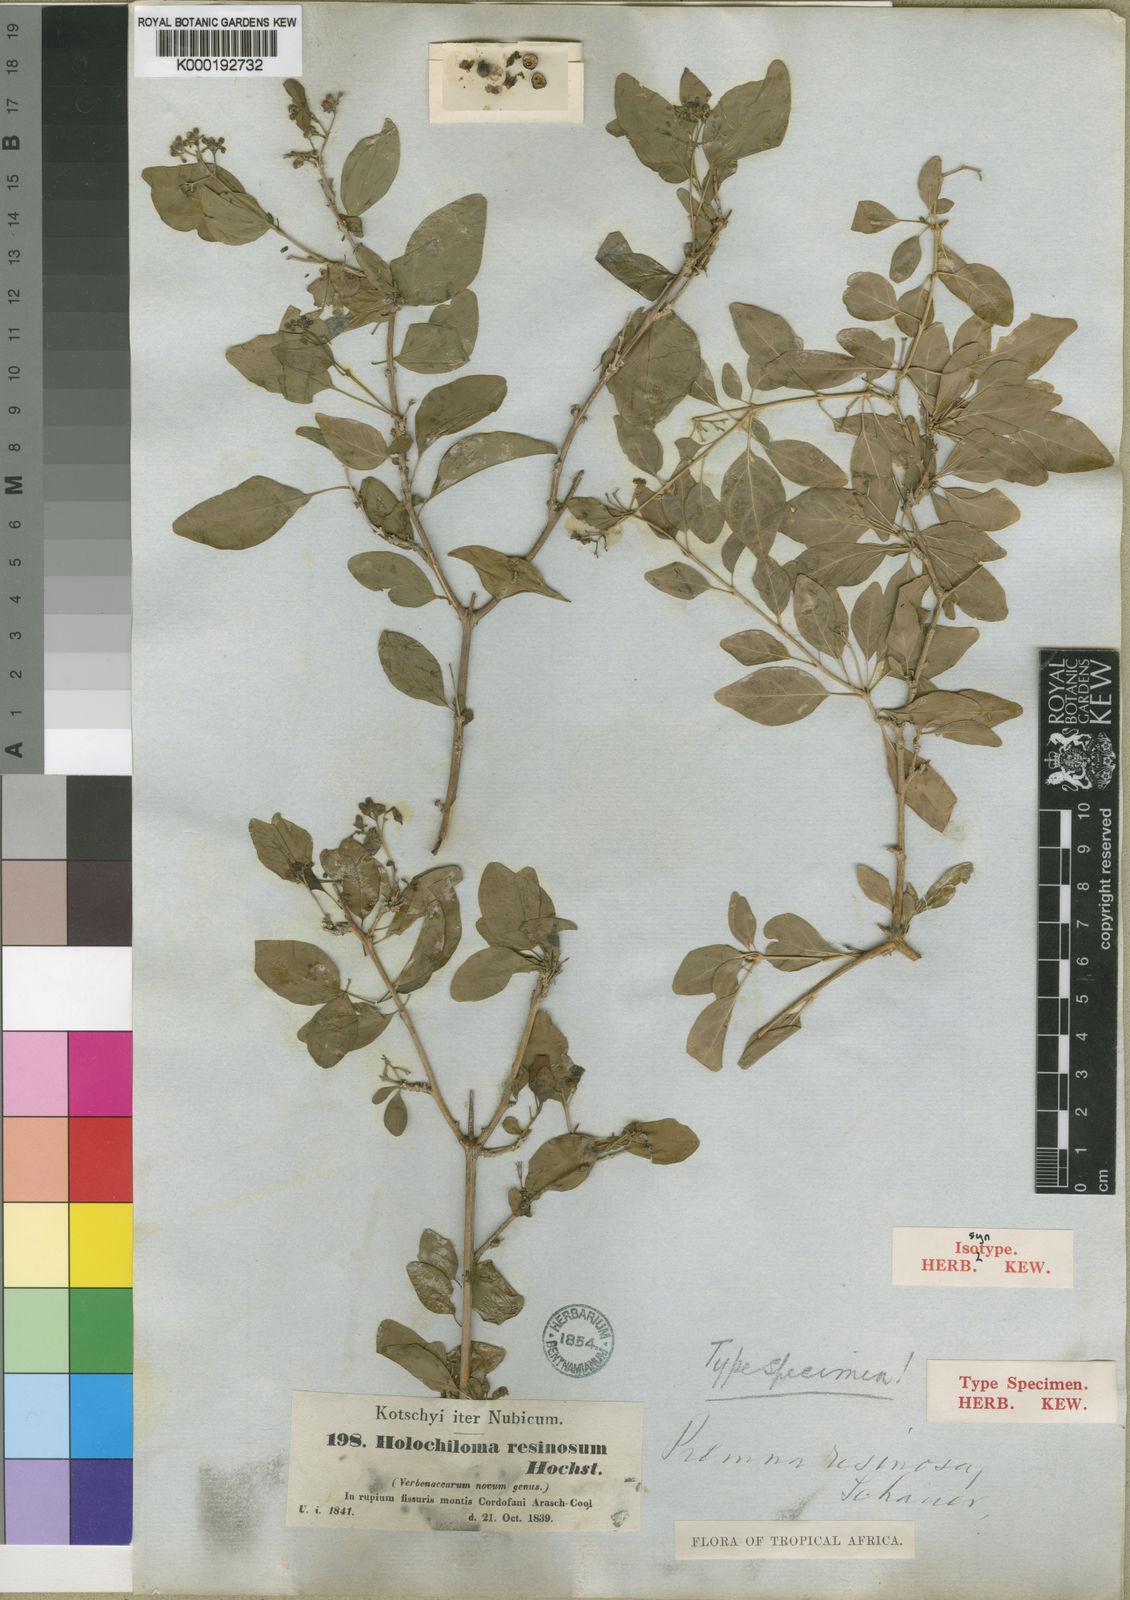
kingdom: Plantae
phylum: Tracheophyta
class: Magnoliopsida
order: Lamiales
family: Lamiaceae
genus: Premna
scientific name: Premna resinosa
